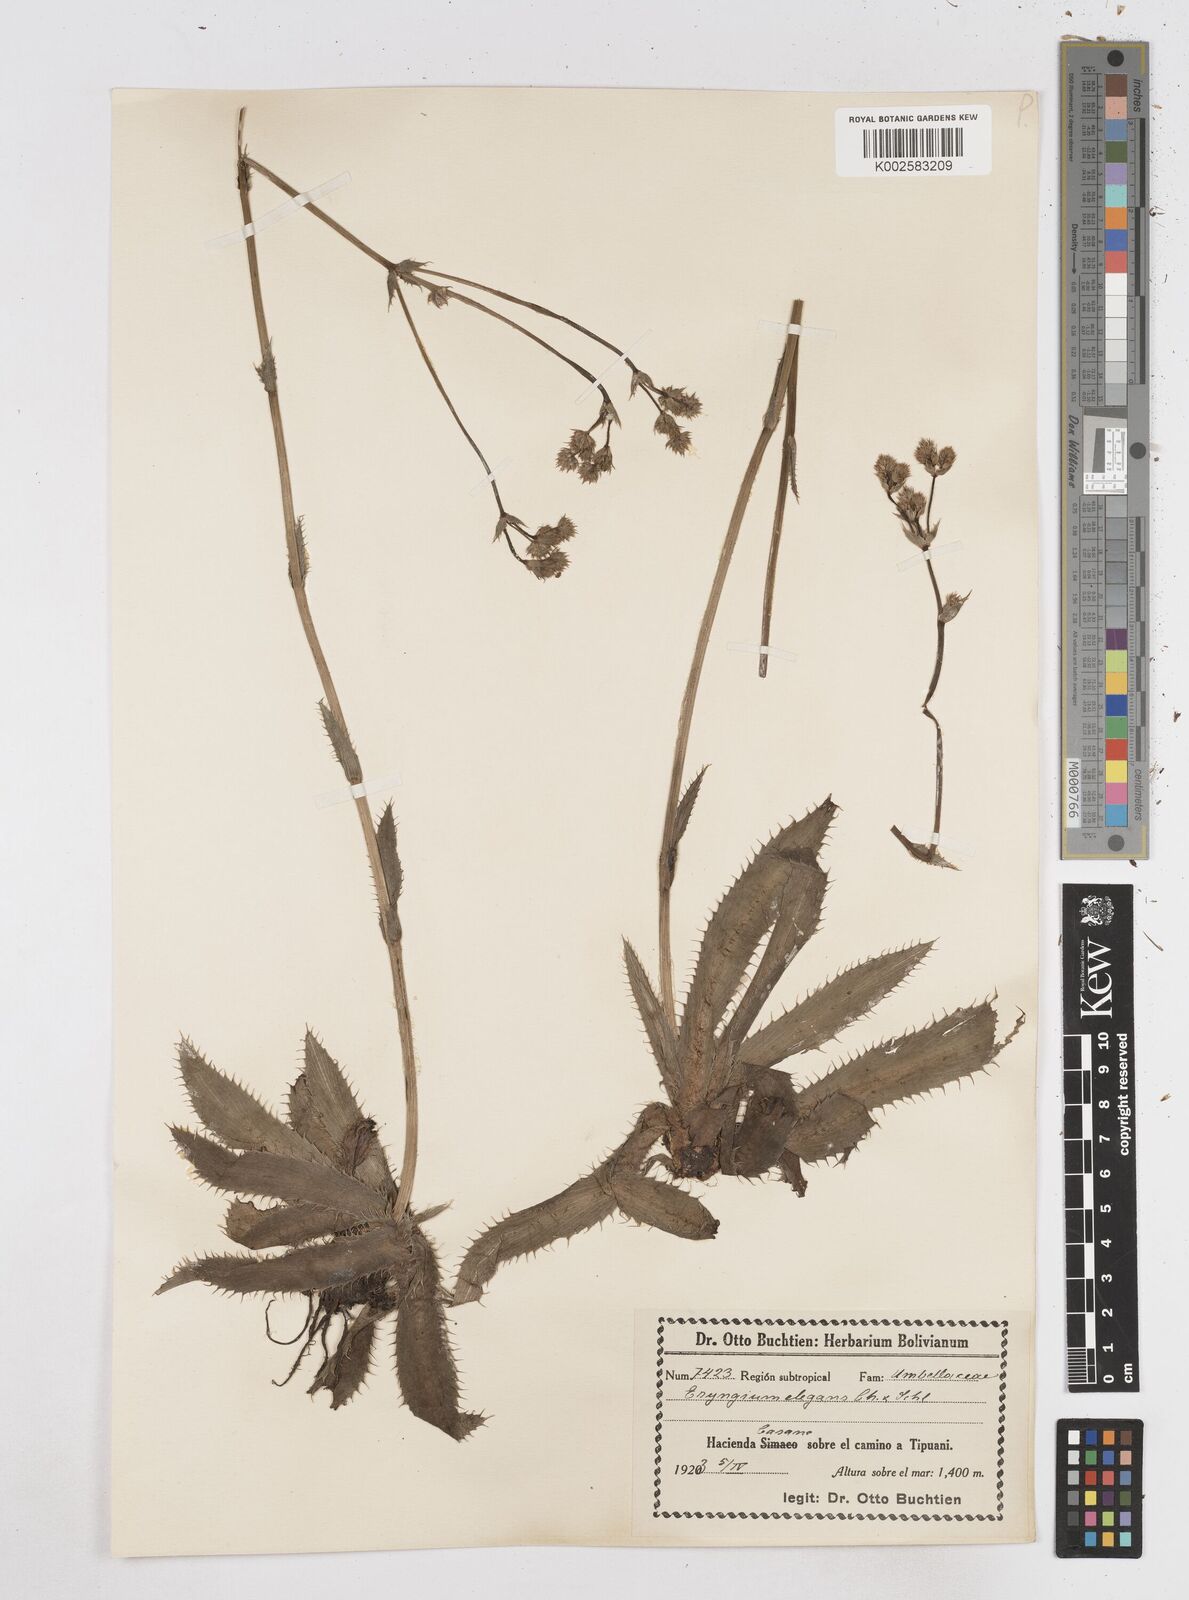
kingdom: Plantae
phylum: Tracheophyta
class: Magnoliopsida
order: Apiales
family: Apiaceae
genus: Eryngium
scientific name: Eryngium elegans
